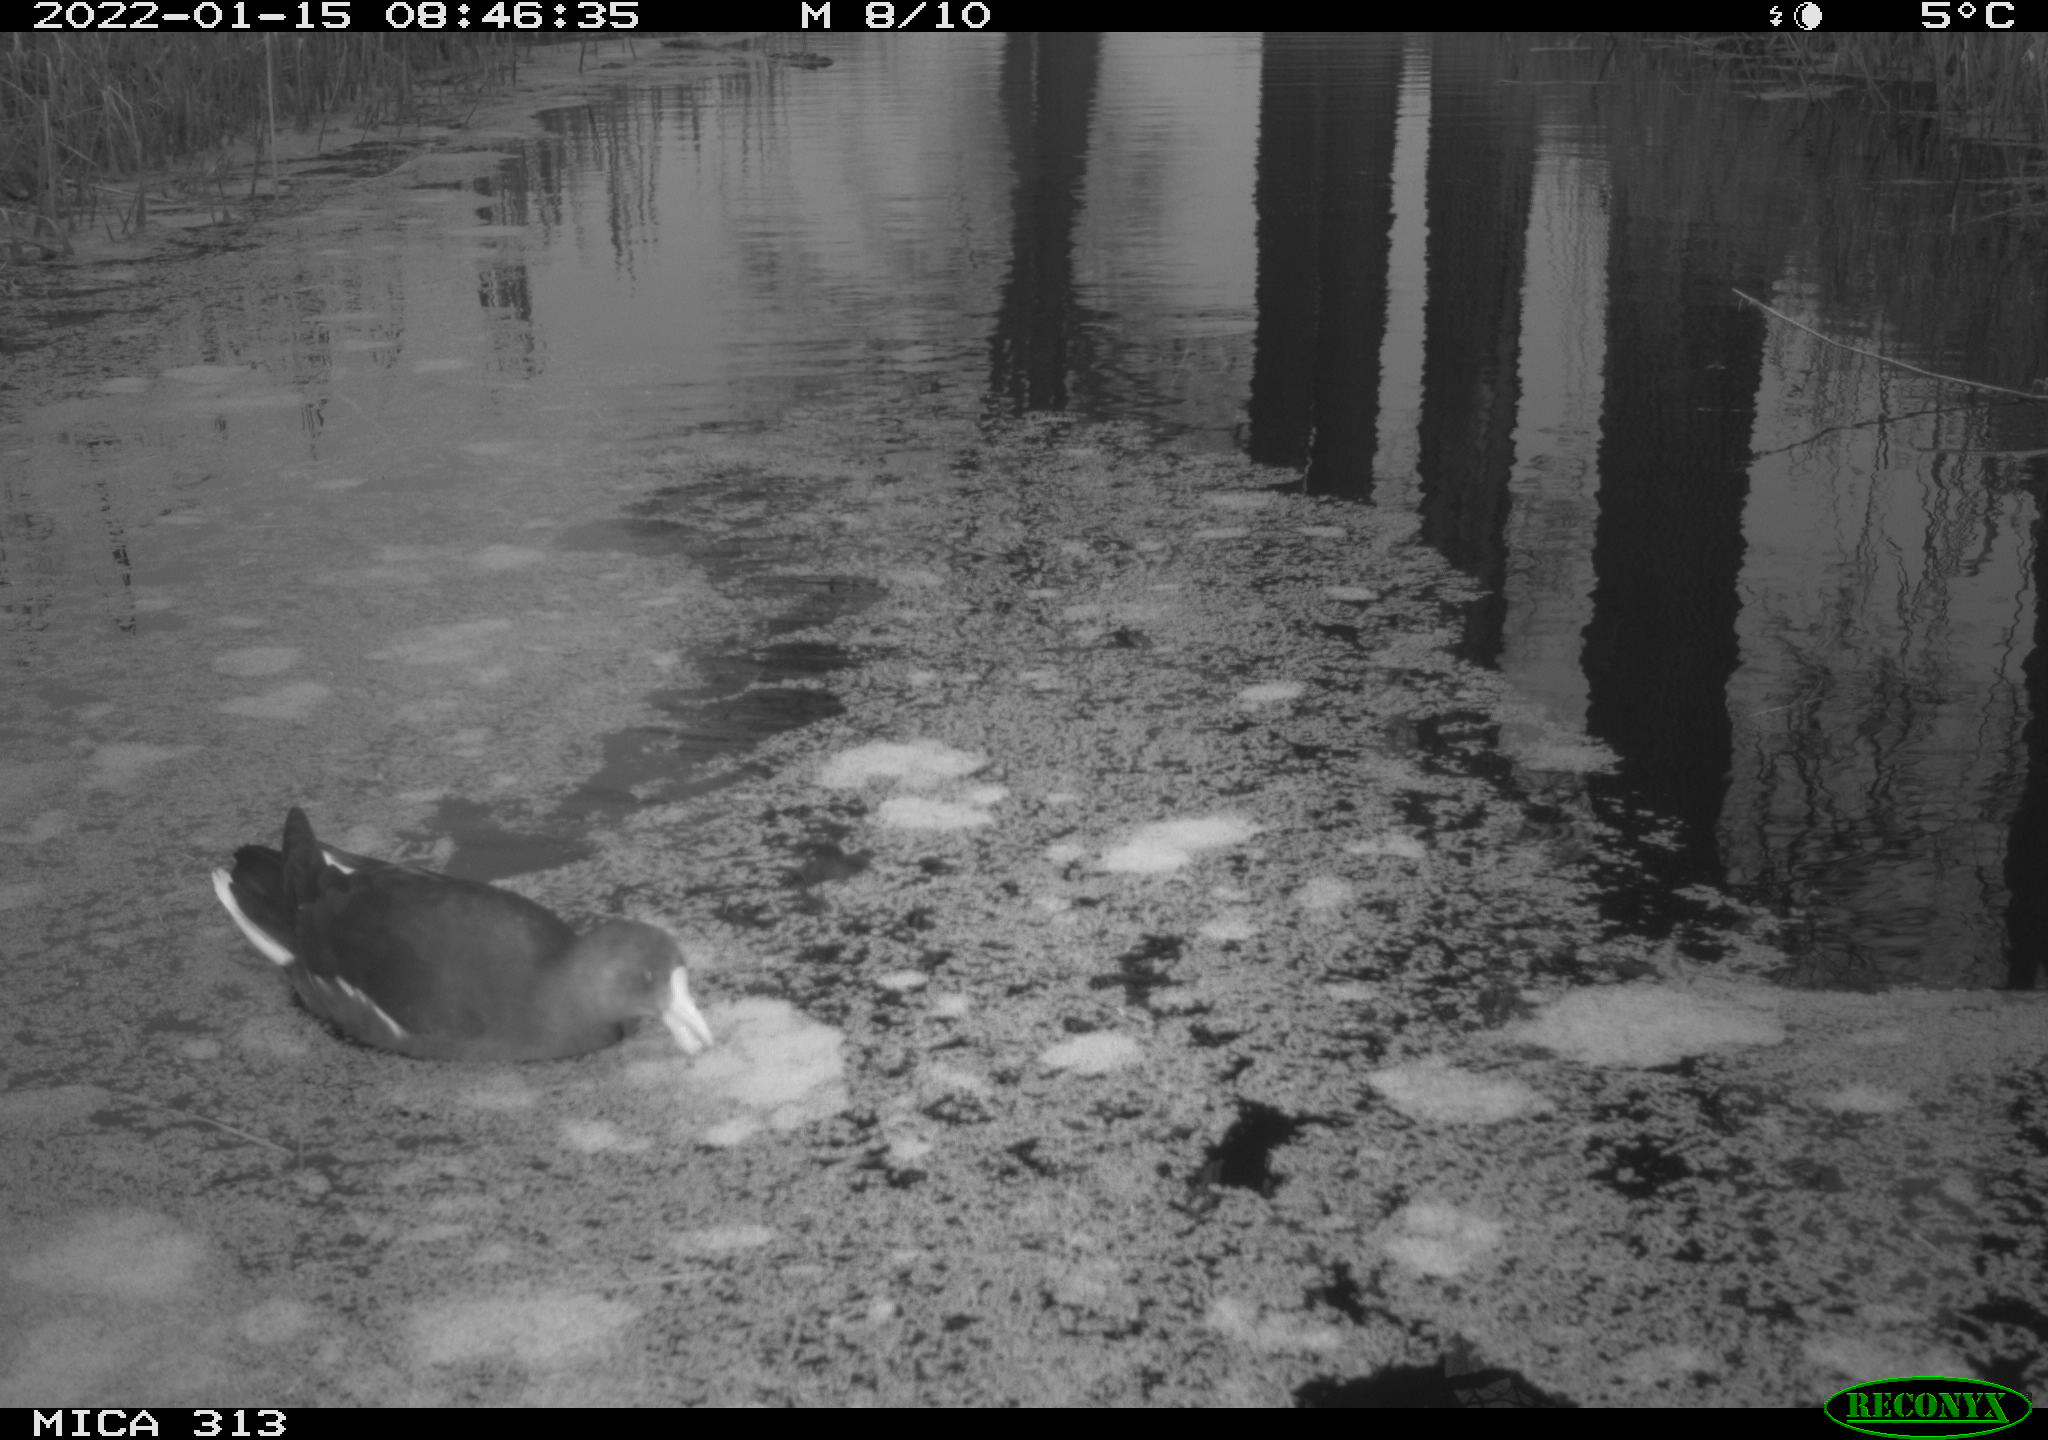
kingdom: Animalia
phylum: Chordata
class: Aves
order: Gruiformes
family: Rallidae
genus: Gallinula
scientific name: Gallinula chloropus
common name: Common moorhen
